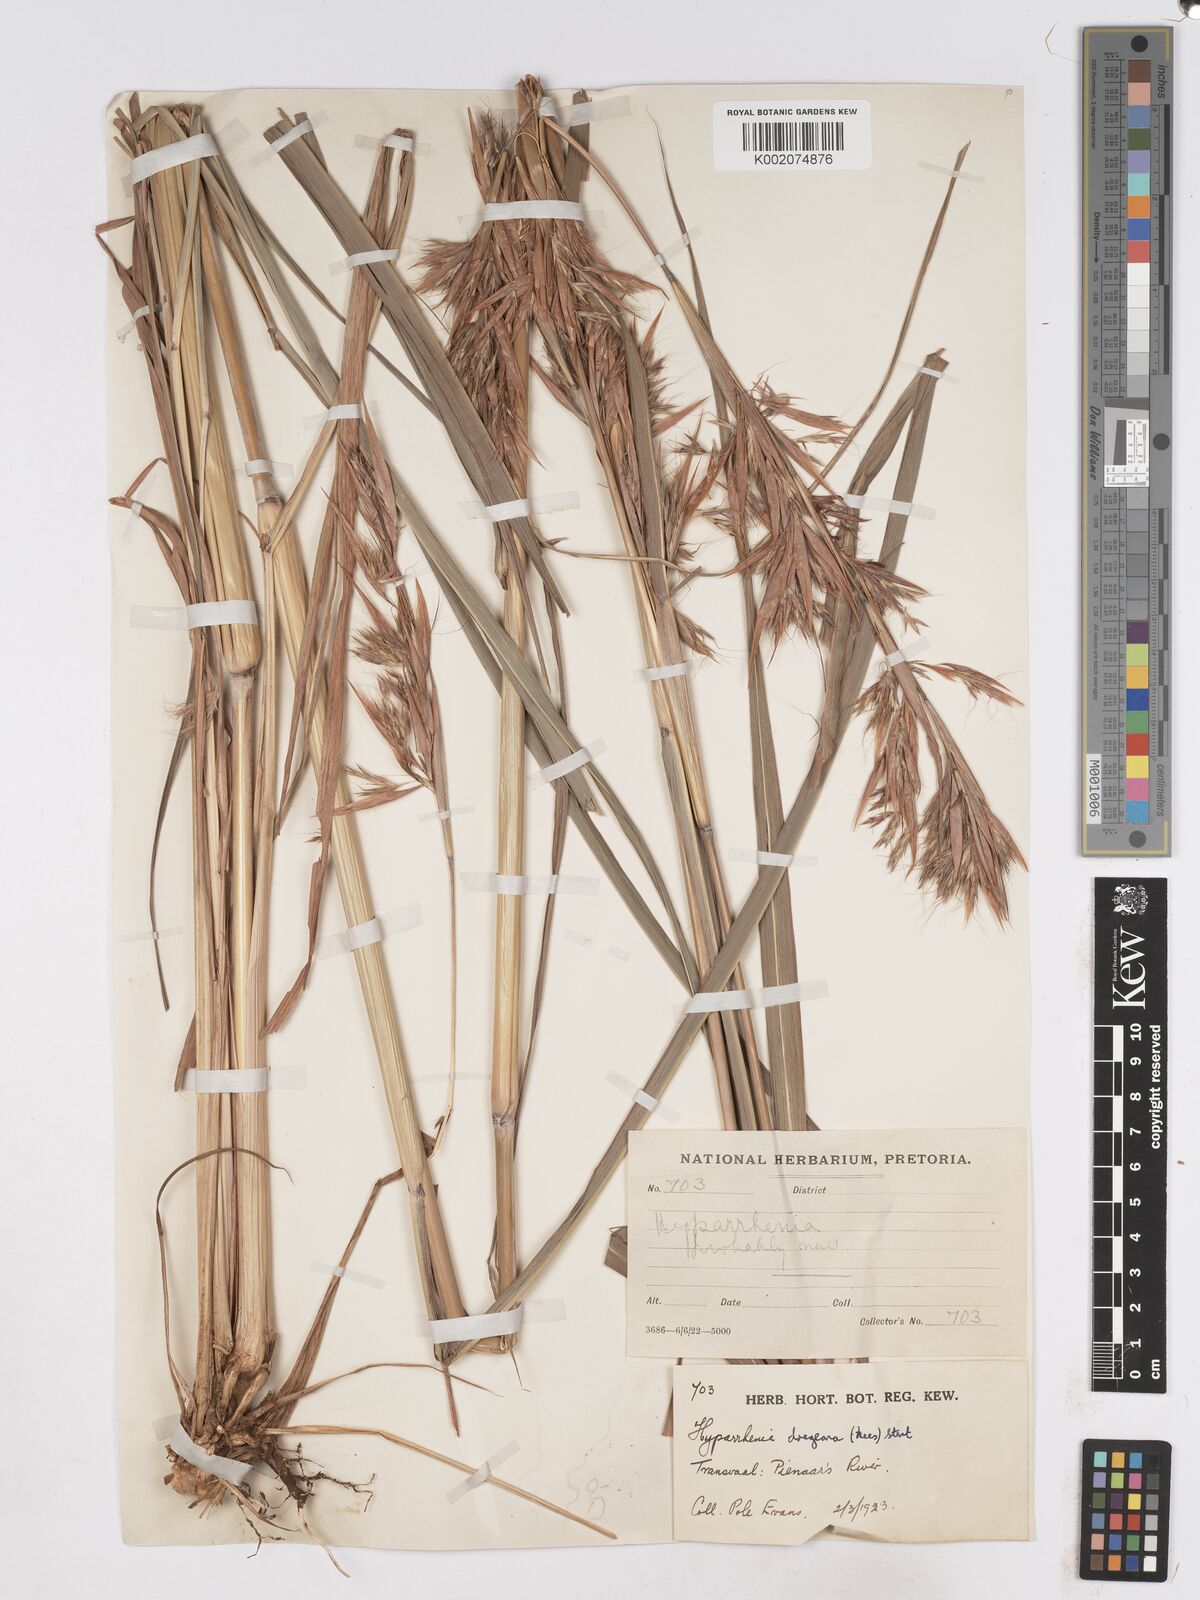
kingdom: Plantae
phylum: Tracheophyta
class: Liliopsida
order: Poales
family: Poaceae
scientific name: Poaceae
